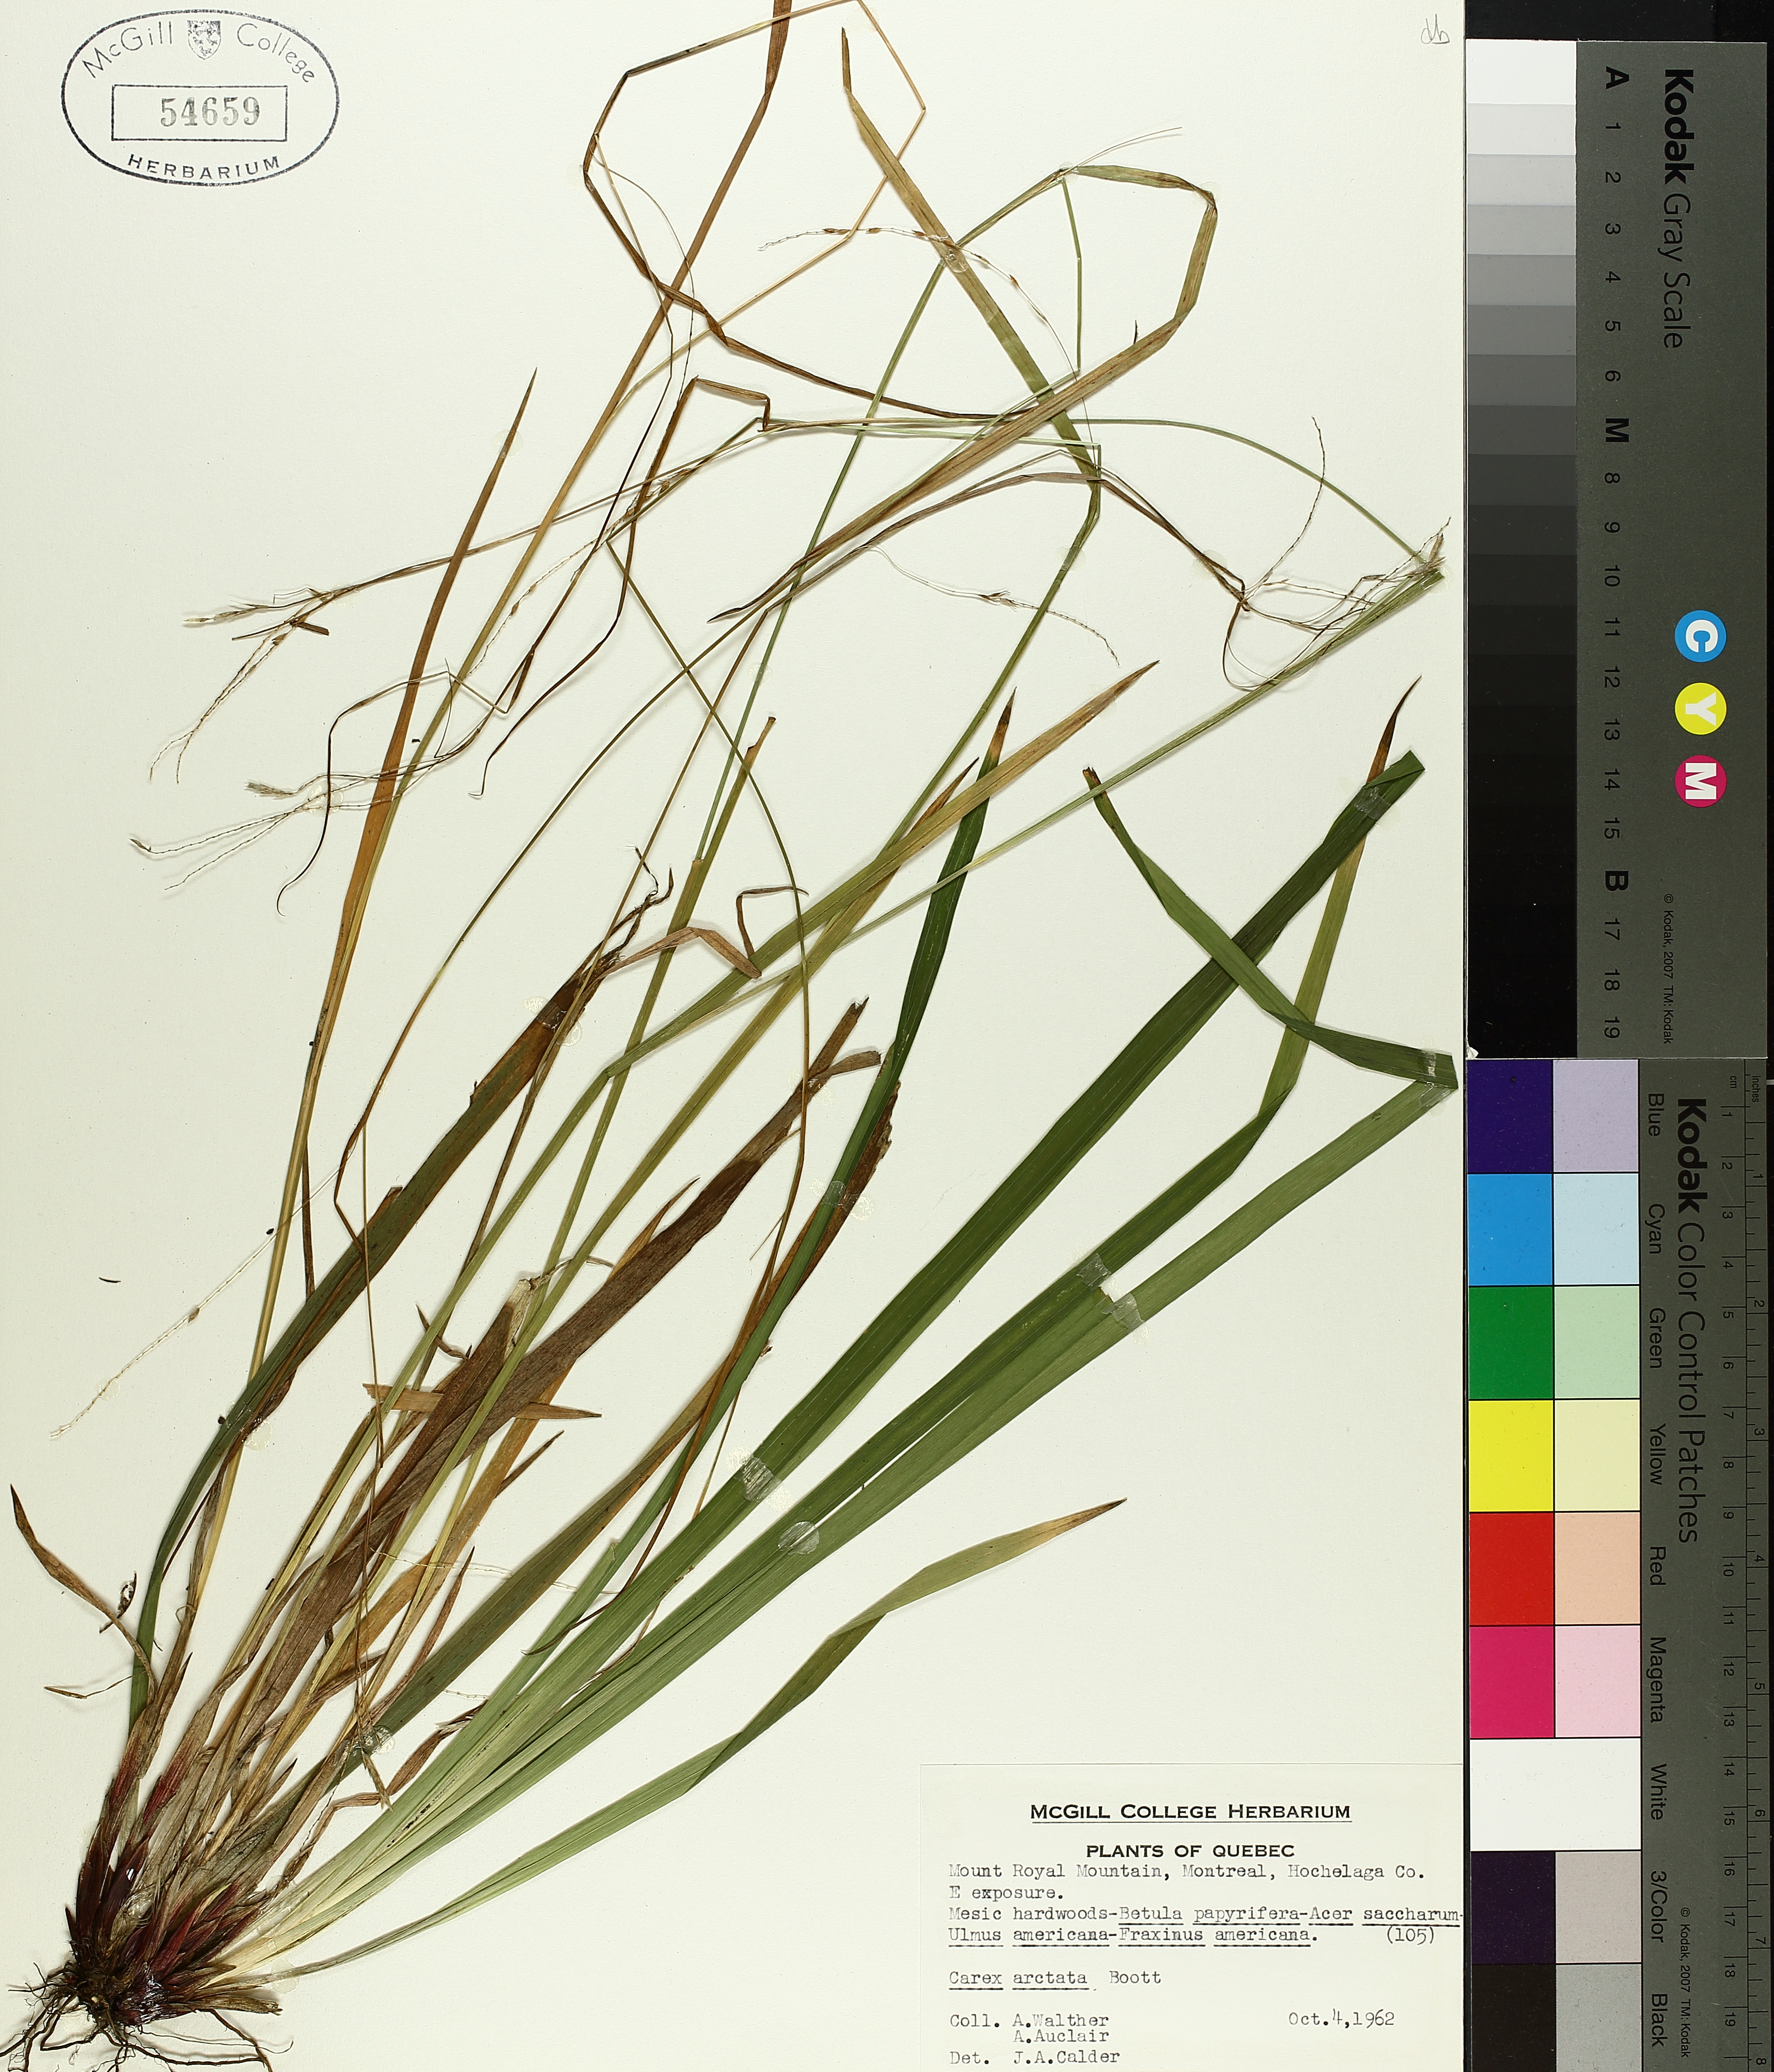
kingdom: Plantae
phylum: Tracheophyta
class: Liliopsida
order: Poales
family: Cyperaceae
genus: Carex
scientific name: Carex arctata
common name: Black sedge
